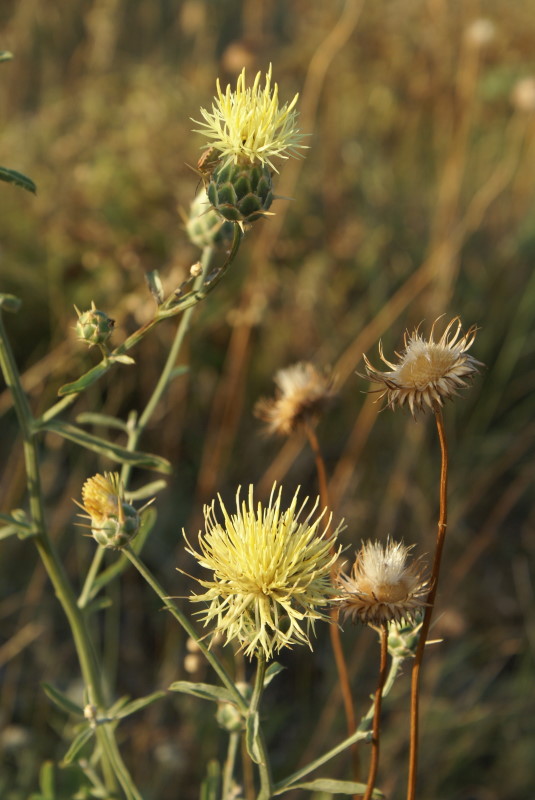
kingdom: Plantae
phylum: Tracheophyta
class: Magnoliopsida
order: Asterales
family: Asteraceae
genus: Centaurea
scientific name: Centaurea solstitialis
